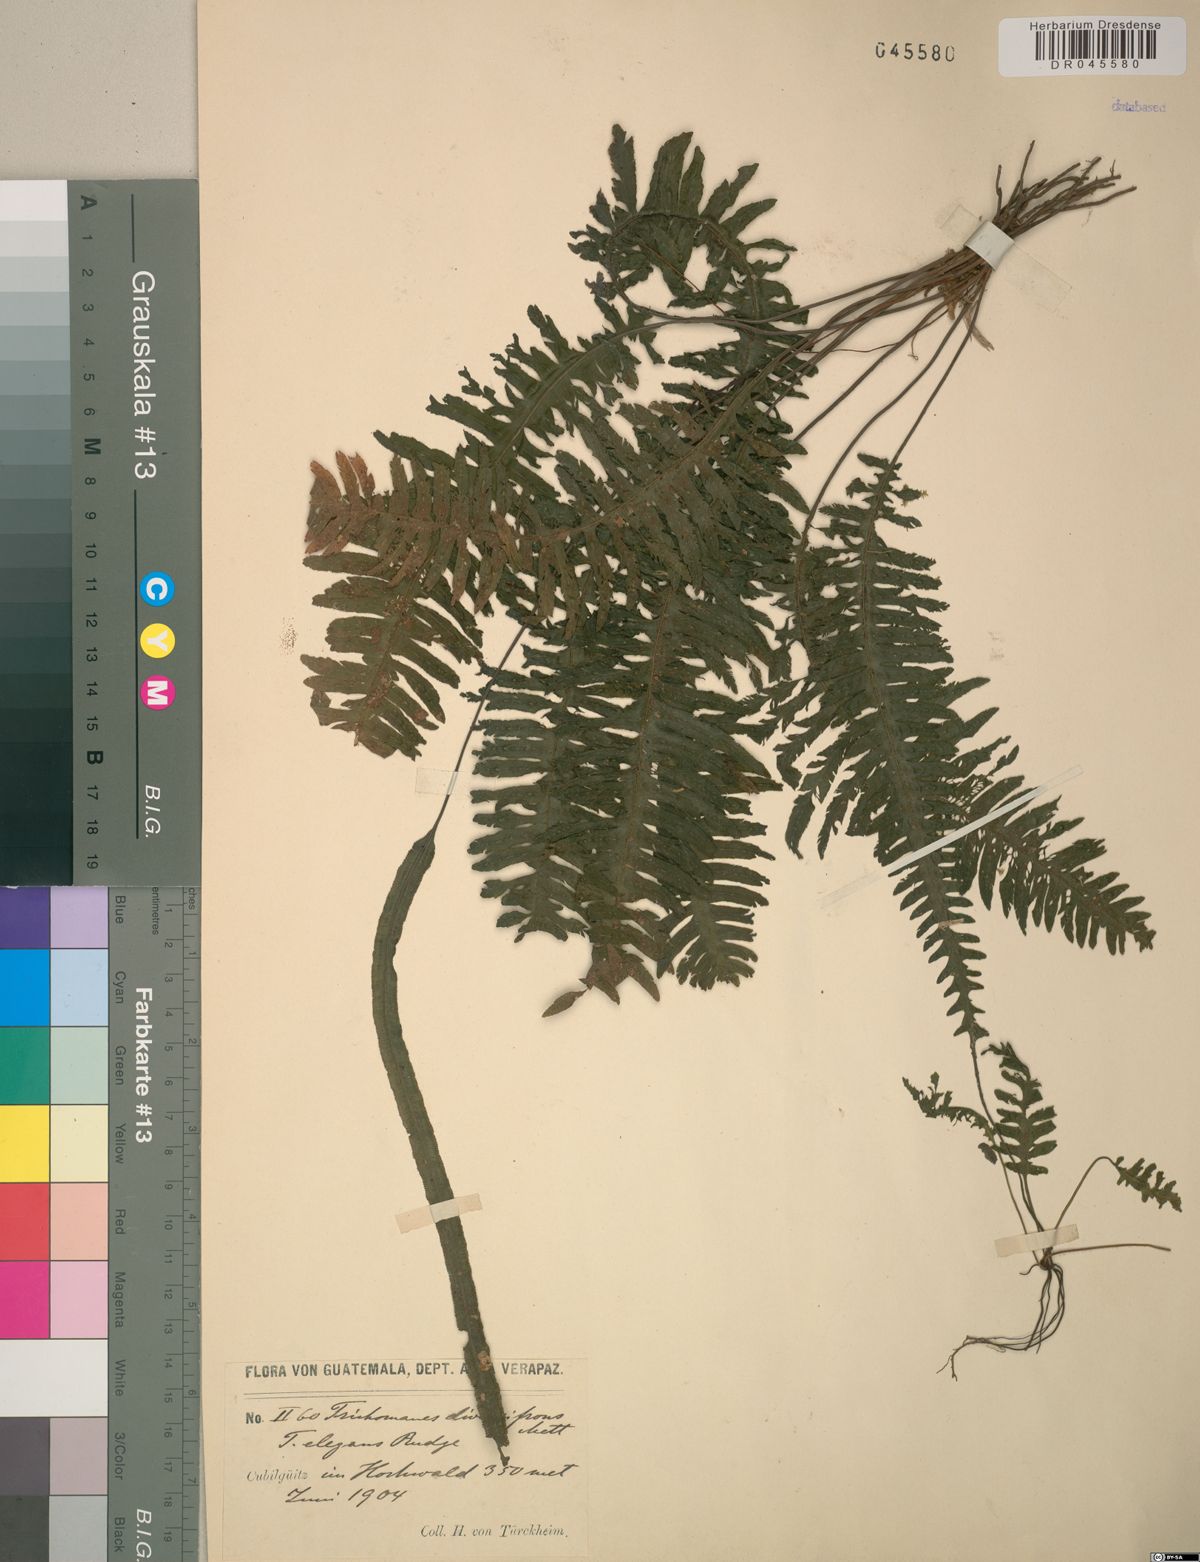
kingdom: Plantae
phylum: Tracheophyta
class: Polypodiopsida
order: Hymenophyllales
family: Hymenophyllaceae
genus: Trichomanes
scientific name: Trichomanes diversifrons
